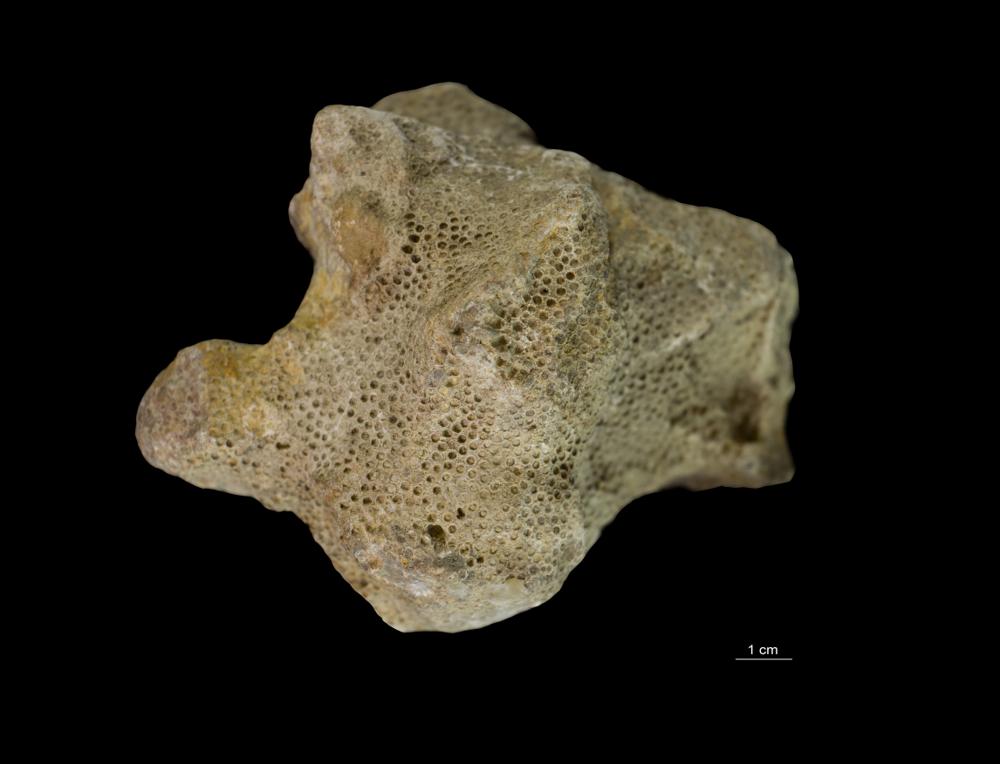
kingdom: Animalia
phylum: Cnidaria
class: Anthozoa
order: Heliolitina
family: Heliolitidae
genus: Heliolites
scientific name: Heliolites
